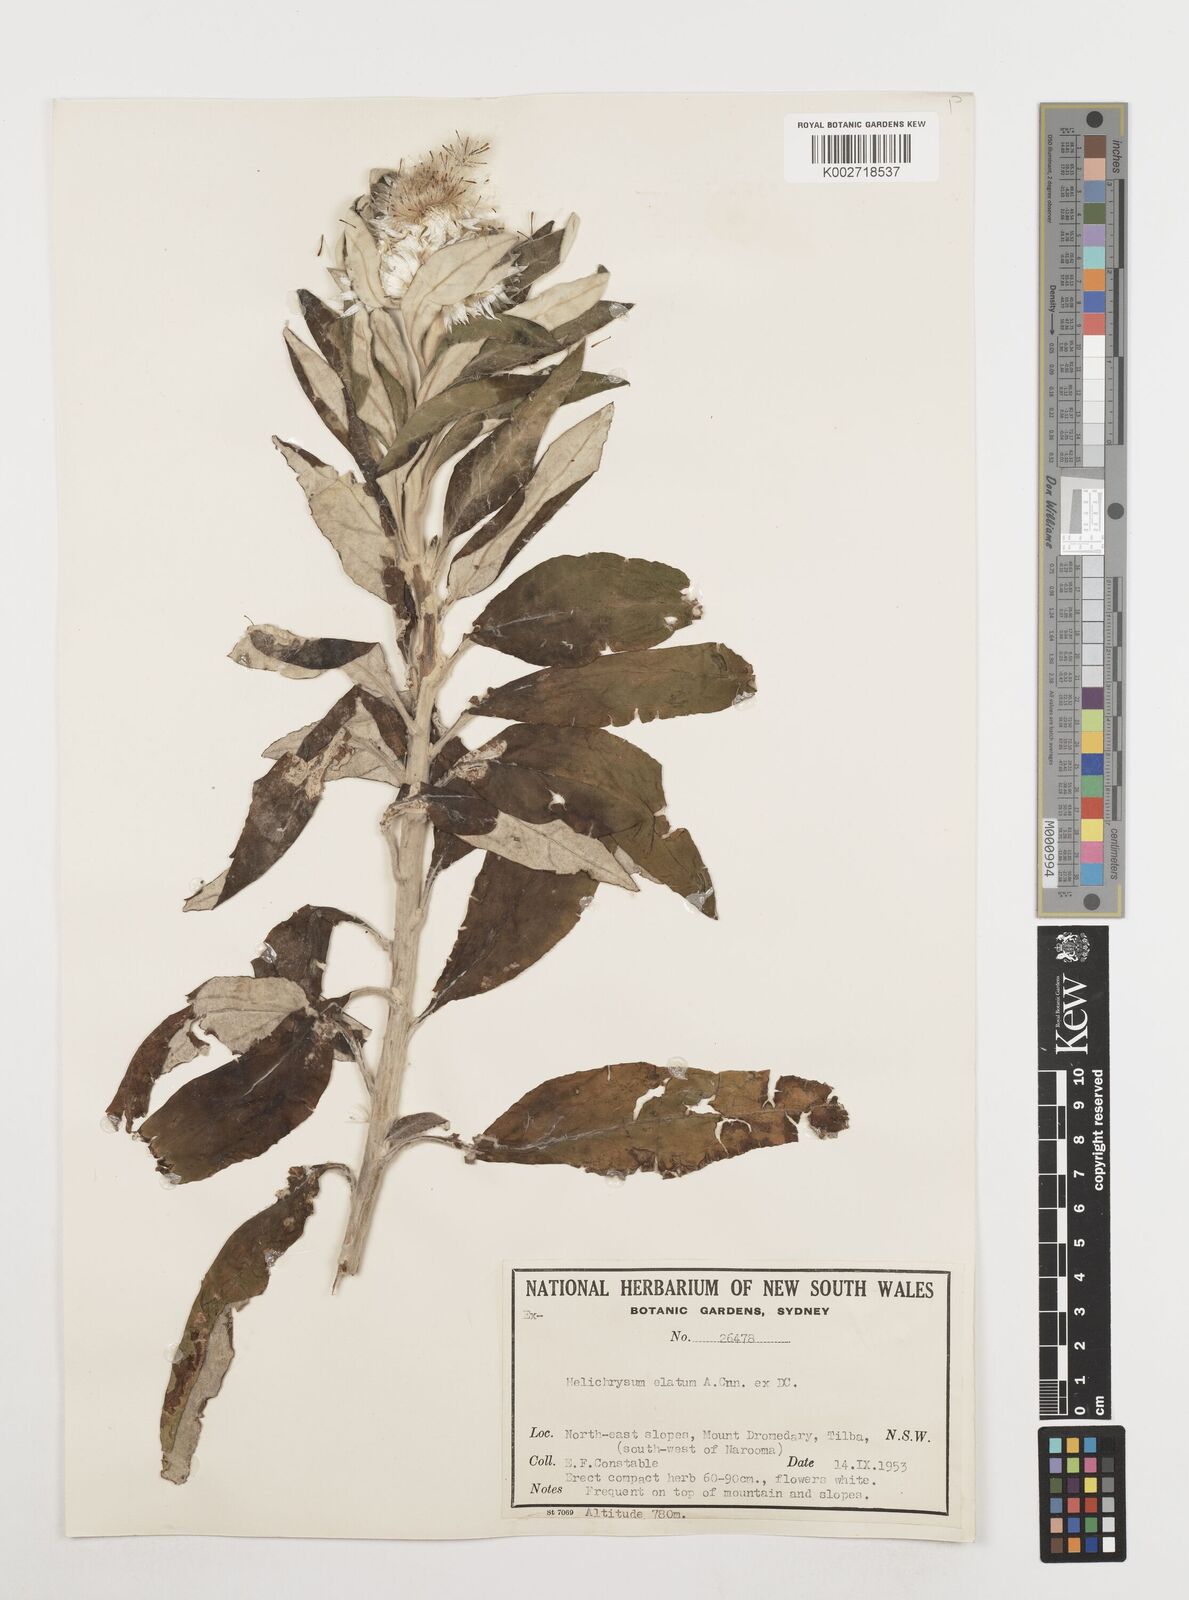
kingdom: Plantae
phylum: Tracheophyta
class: Magnoliopsida
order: Asterales
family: Asteraceae
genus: Leucozoma
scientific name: Leucozoma elatum
